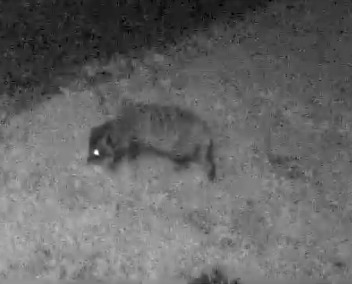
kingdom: Animalia
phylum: Chordata
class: Mammalia
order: Carnivora
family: Canidae
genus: Nyctereutes
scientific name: Nyctereutes procyonoides
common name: Mårhund
